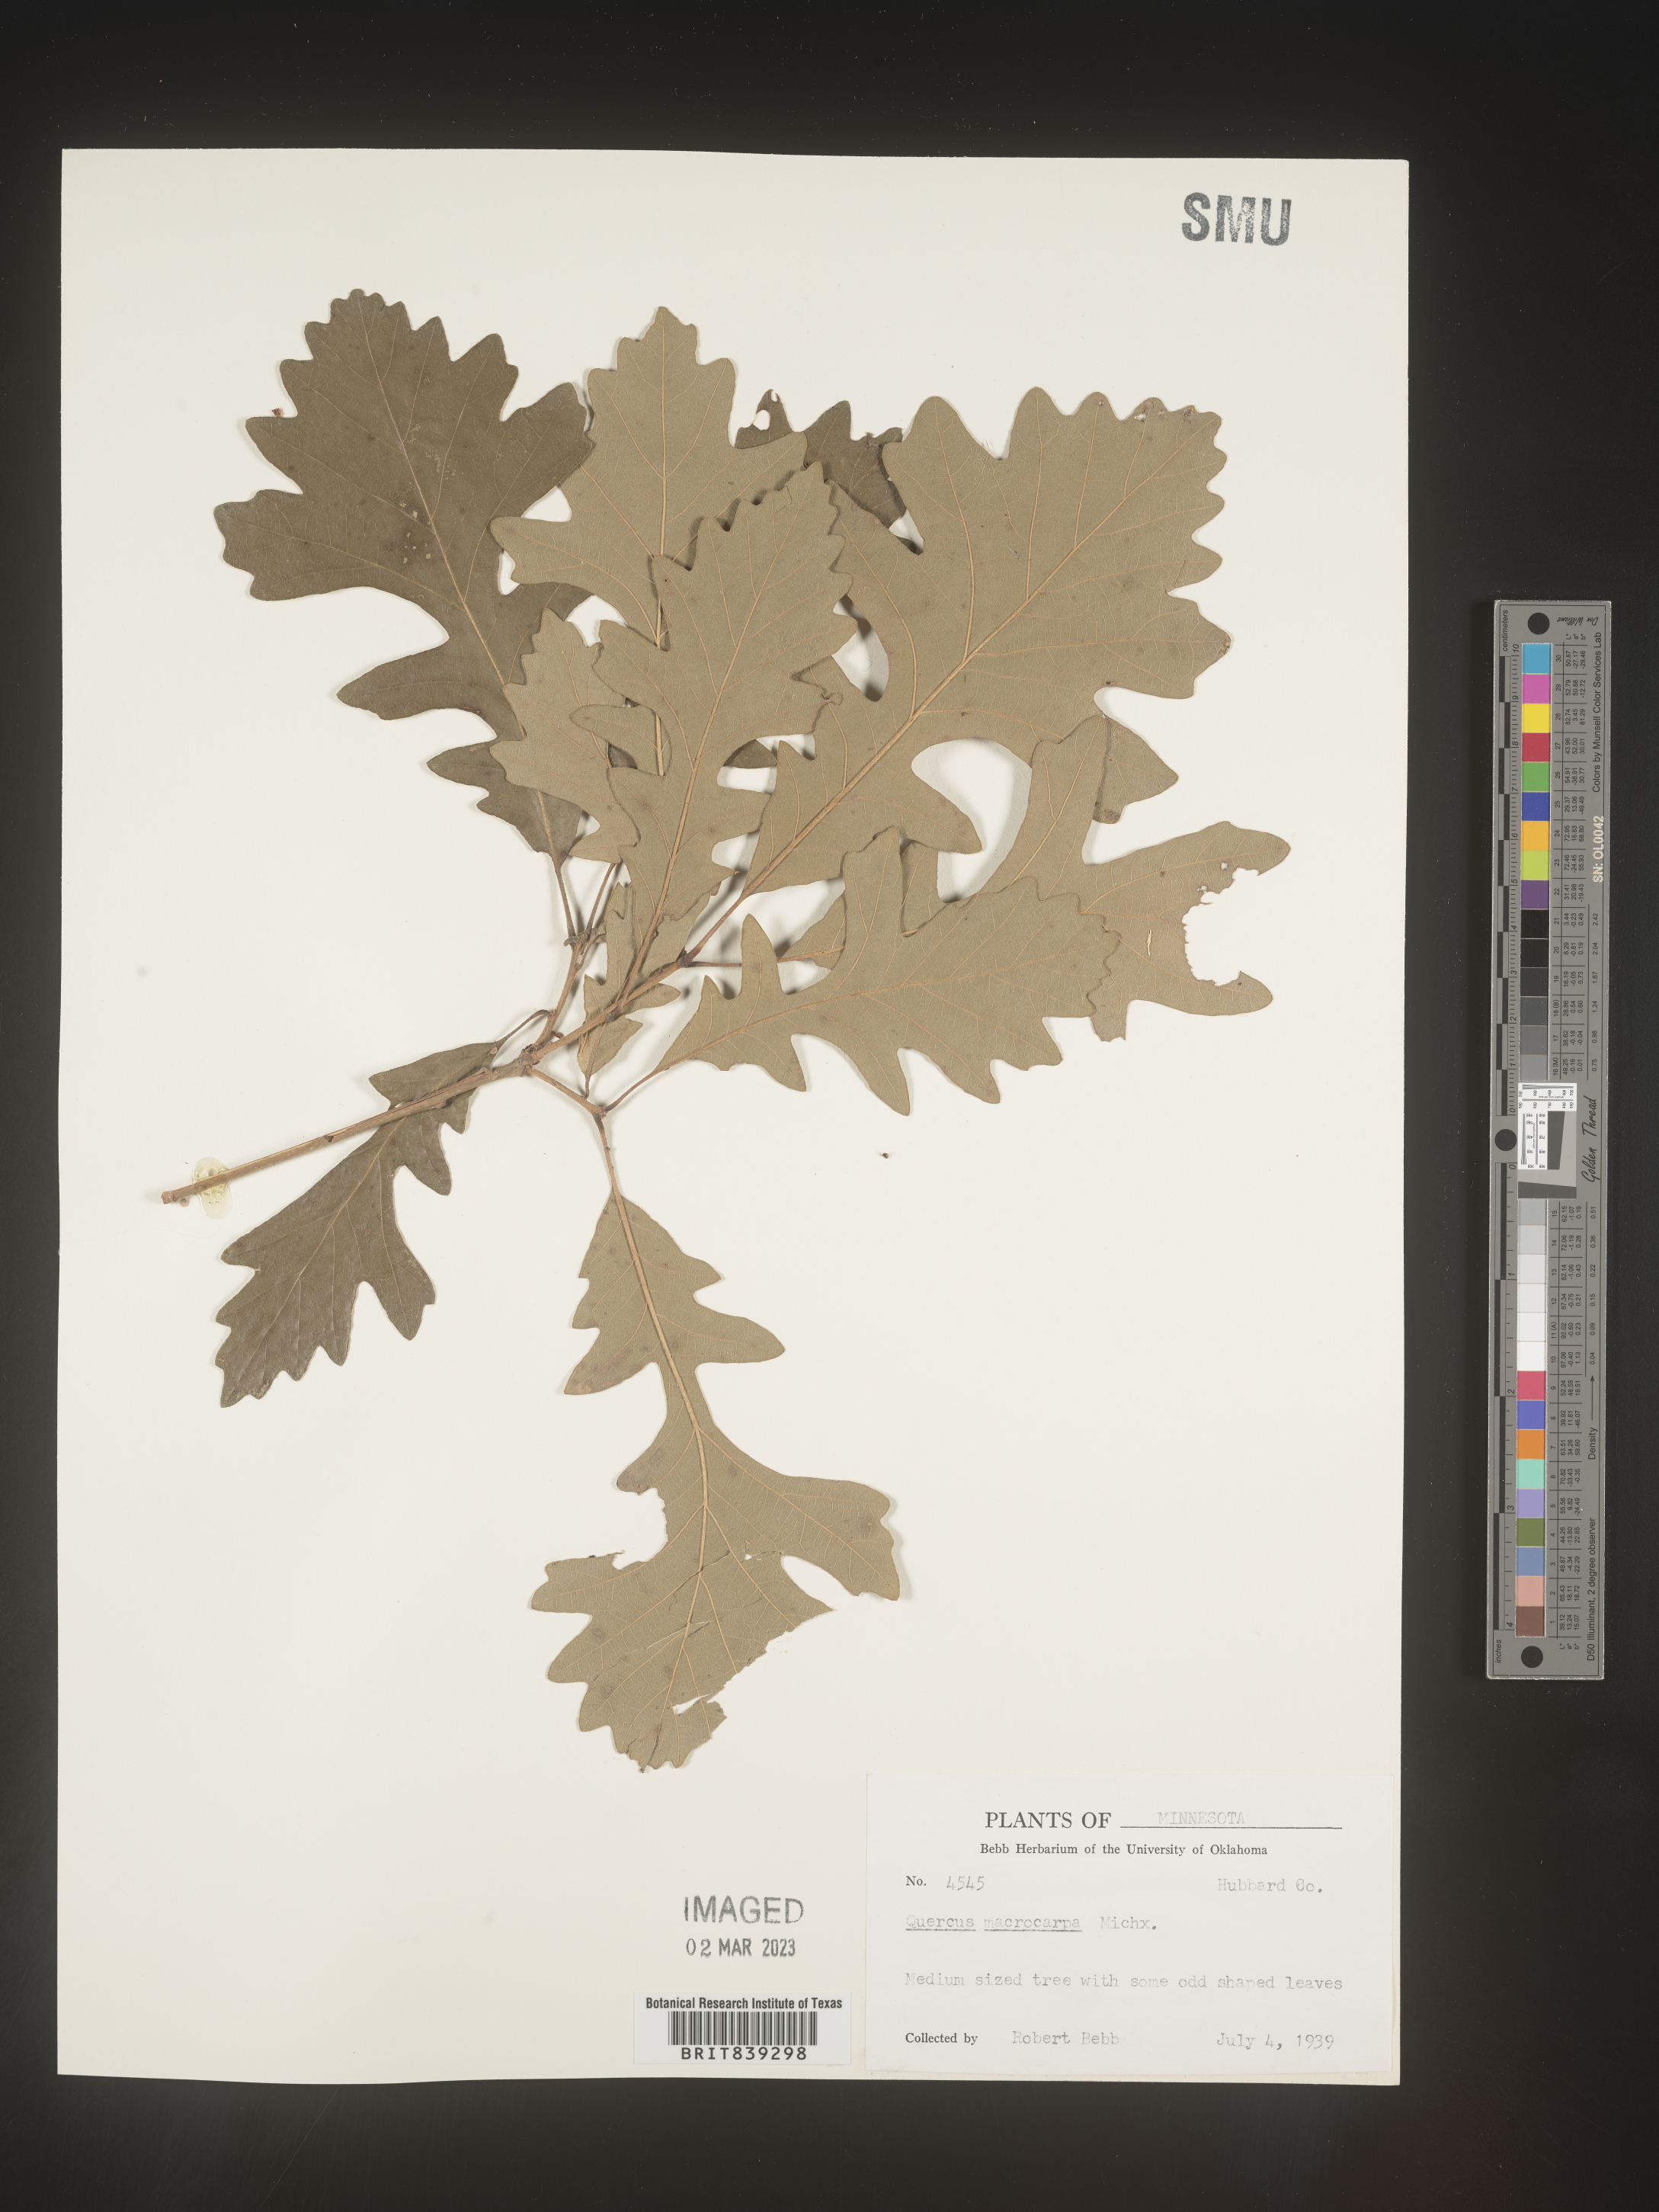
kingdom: Plantae
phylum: Tracheophyta
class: Magnoliopsida
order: Fagales
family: Fagaceae
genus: Quercus
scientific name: Quercus macrocarpa
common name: Bur oak
